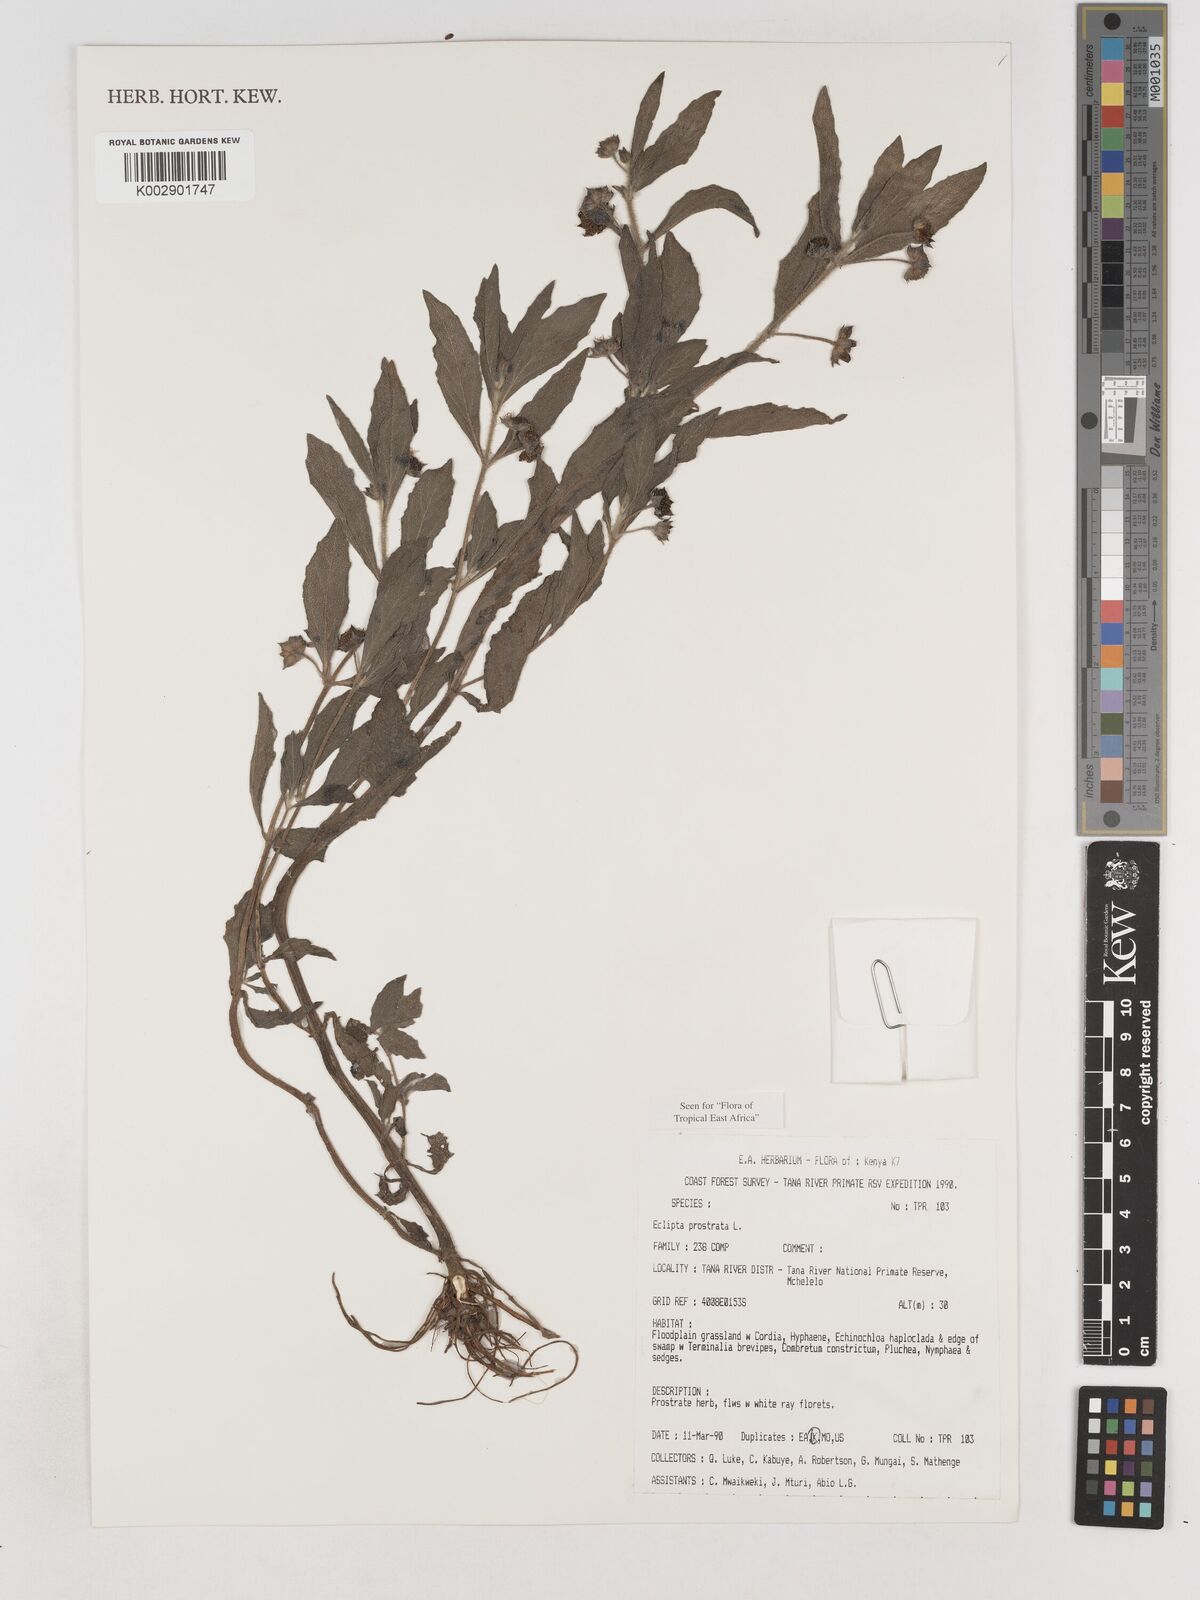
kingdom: Plantae
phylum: Tracheophyta
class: Magnoliopsida
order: Asterales
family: Asteraceae
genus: Eclipta
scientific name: Eclipta prostrata
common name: False daisy
